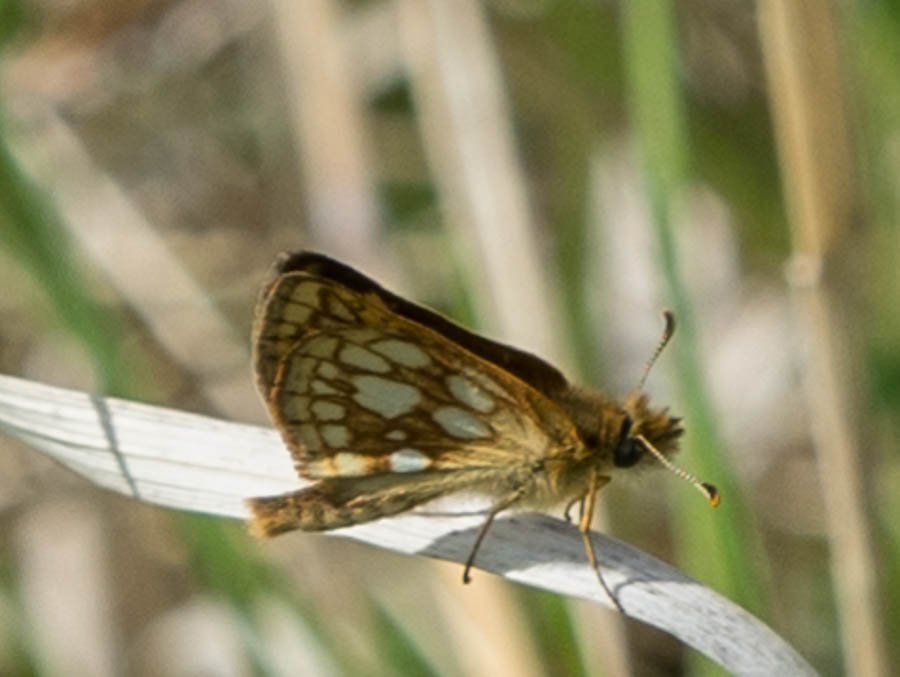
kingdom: Animalia
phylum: Arthropoda
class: Insecta
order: Lepidoptera
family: Hesperiidae
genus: Carterocephalus
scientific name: Carterocephalus palaemon
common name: Chequered Skipper
